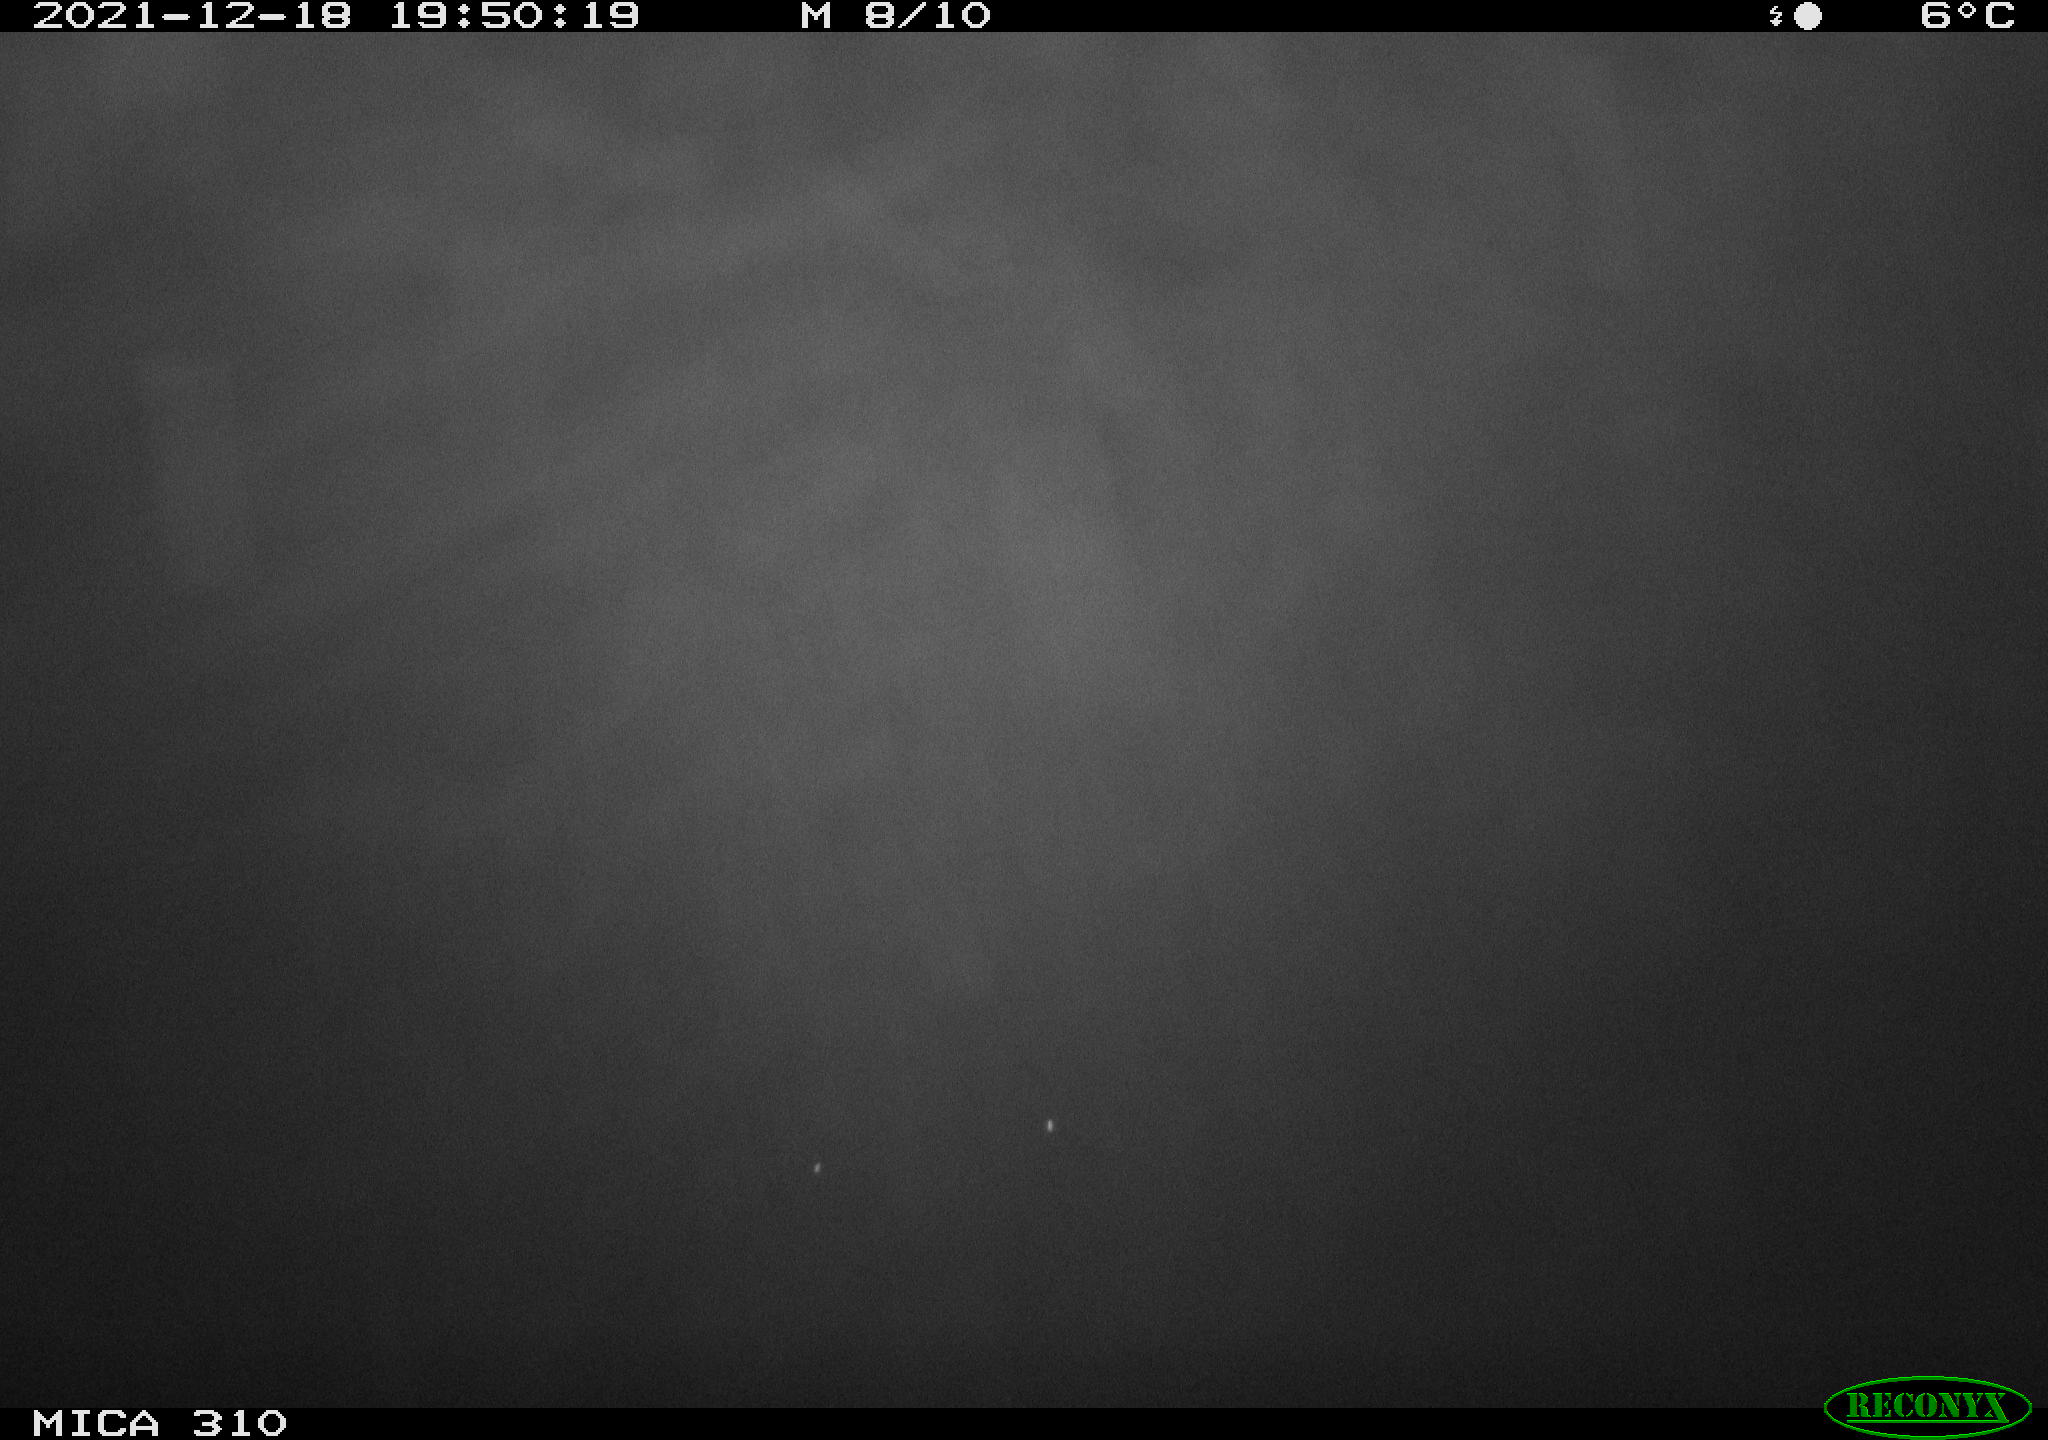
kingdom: Animalia
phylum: Chordata
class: Mammalia
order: Rodentia
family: Cricetidae
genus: Ondatra
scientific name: Ondatra zibethicus
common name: Muskrat
